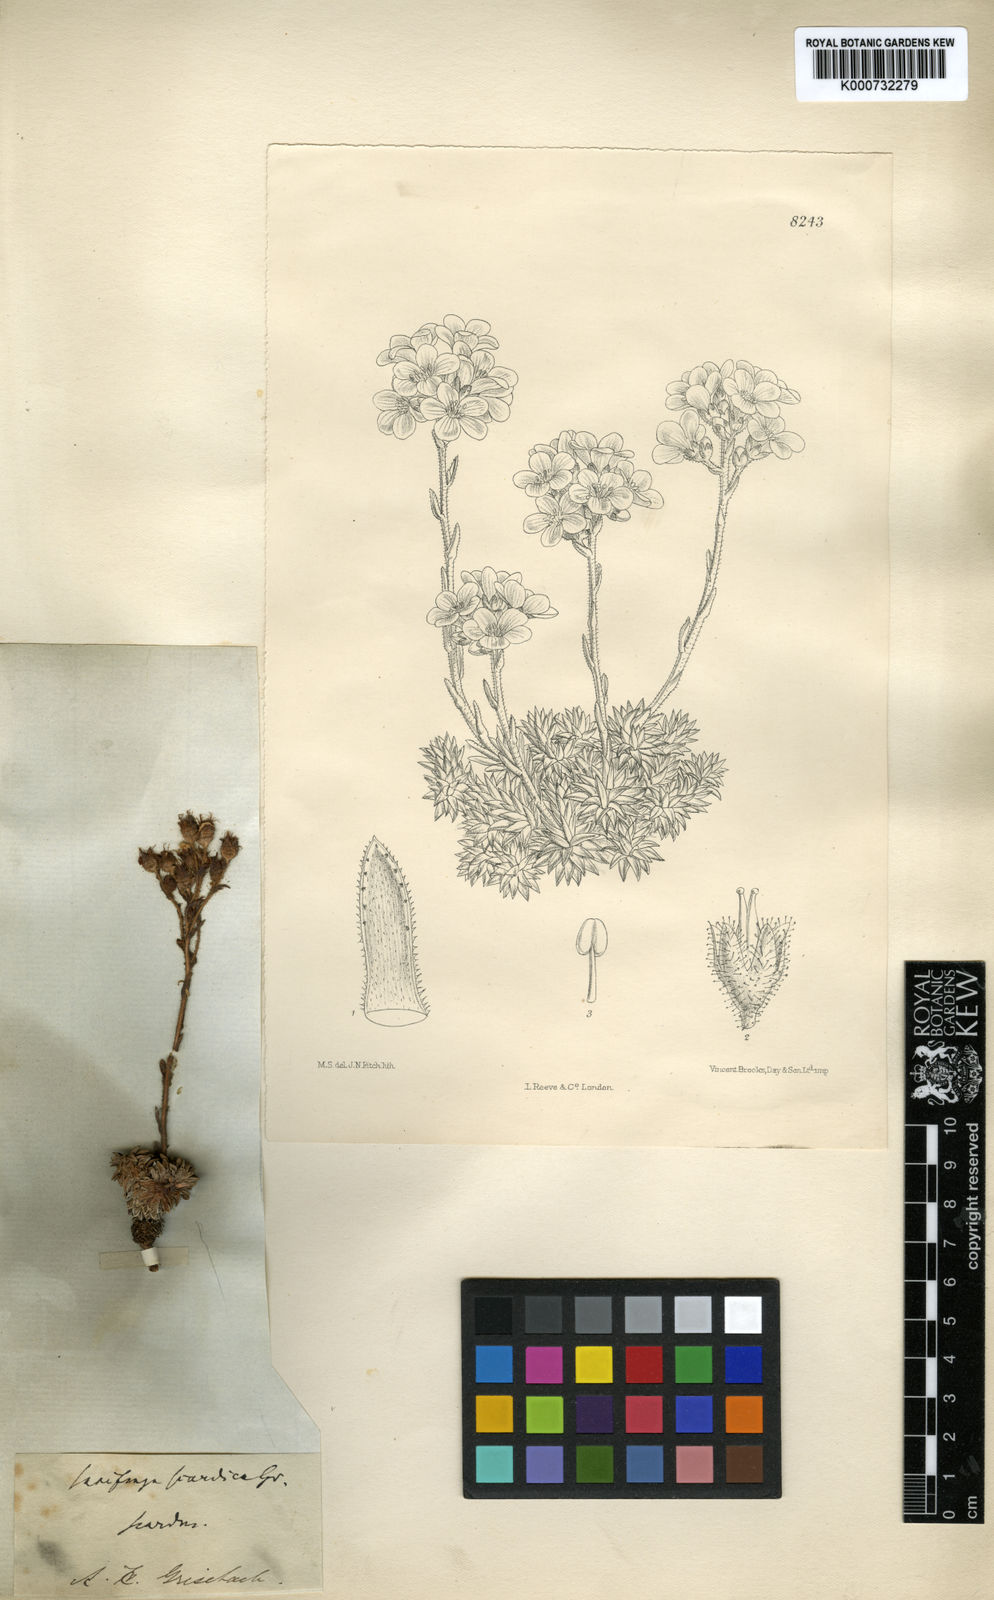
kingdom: Plantae
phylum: Tracheophyta
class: Magnoliopsida
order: Saxifragales
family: Saxifragaceae
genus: Saxifraga
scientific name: Saxifraga scardica
